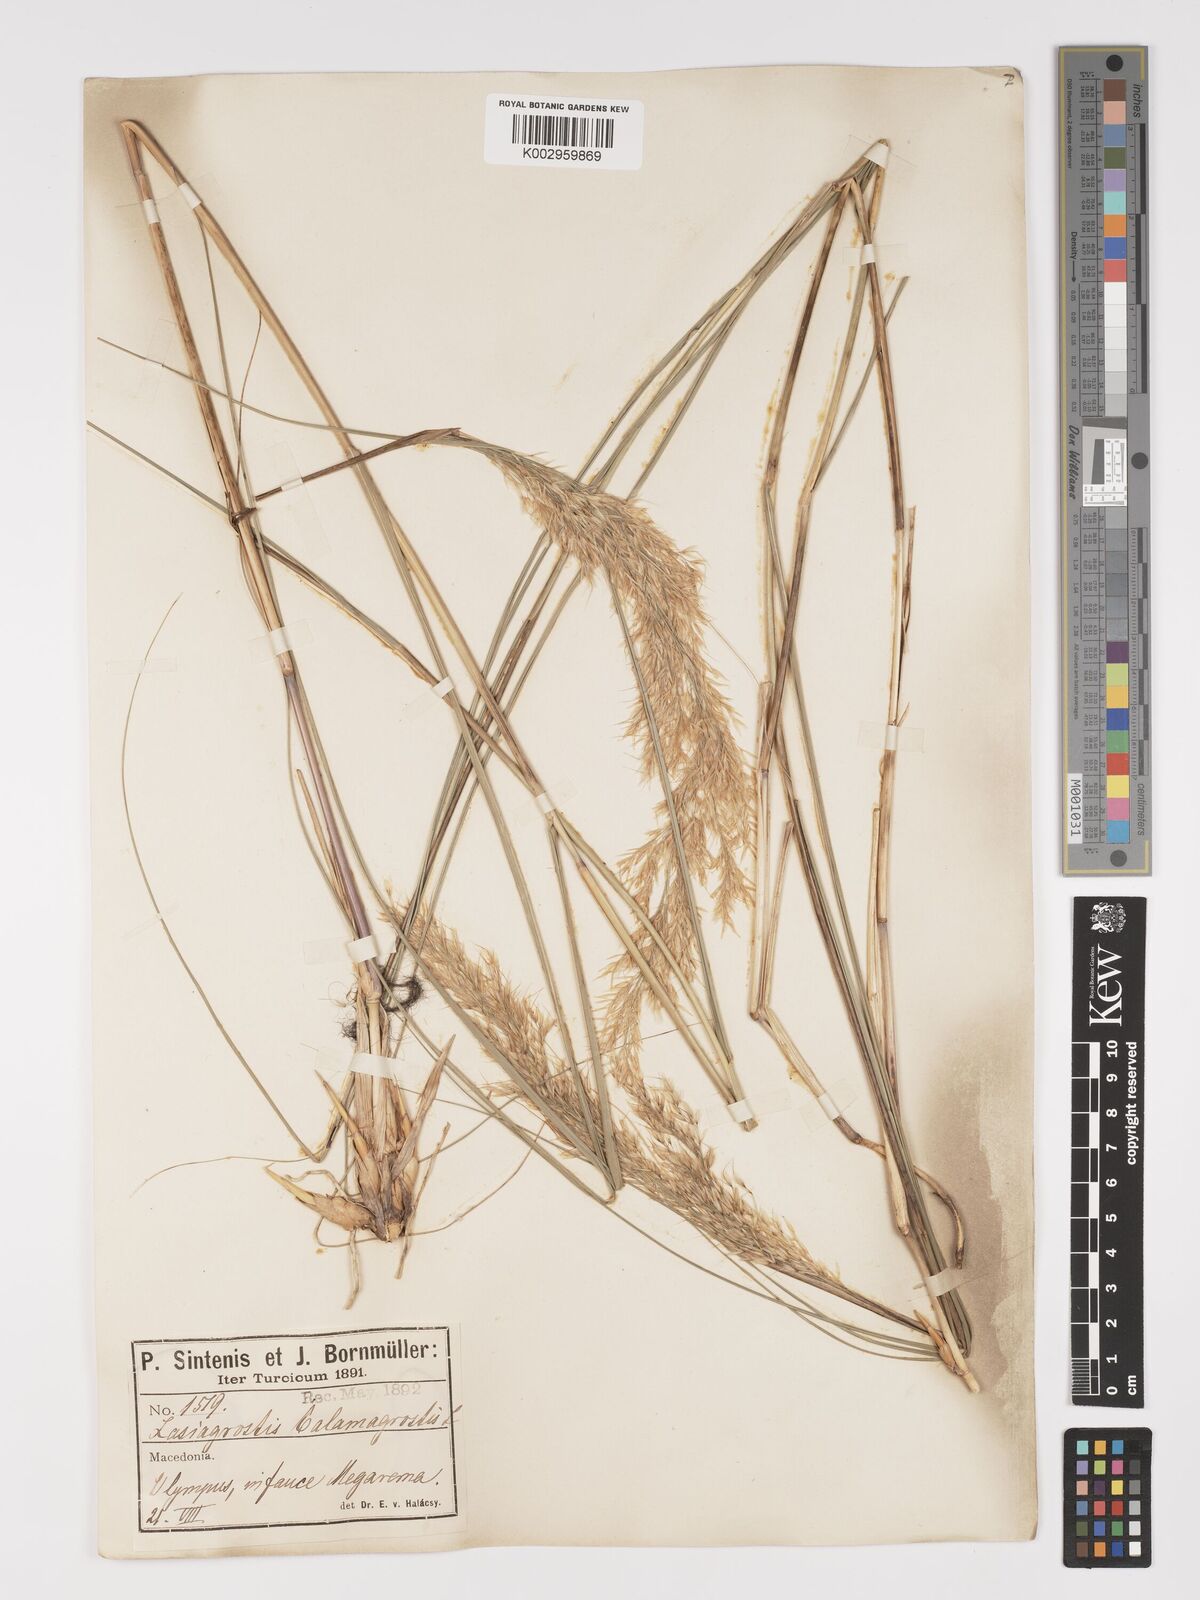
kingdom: Plantae
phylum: Tracheophyta
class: Liliopsida
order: Poales
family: Poaceae
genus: Achnatherum
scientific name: Achnatherum calamagrostis
